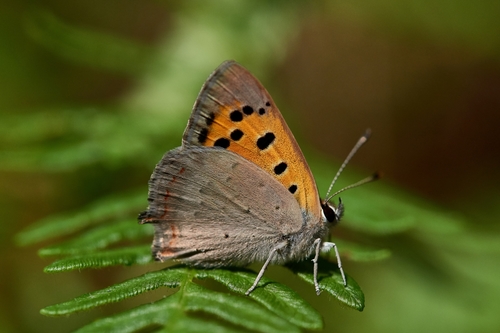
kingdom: Animalia
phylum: Arthropoda
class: Insecta
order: Lepidoptera
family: Lycaenidae
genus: Lycaena
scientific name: Lycaena phlaeas
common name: Small copper
